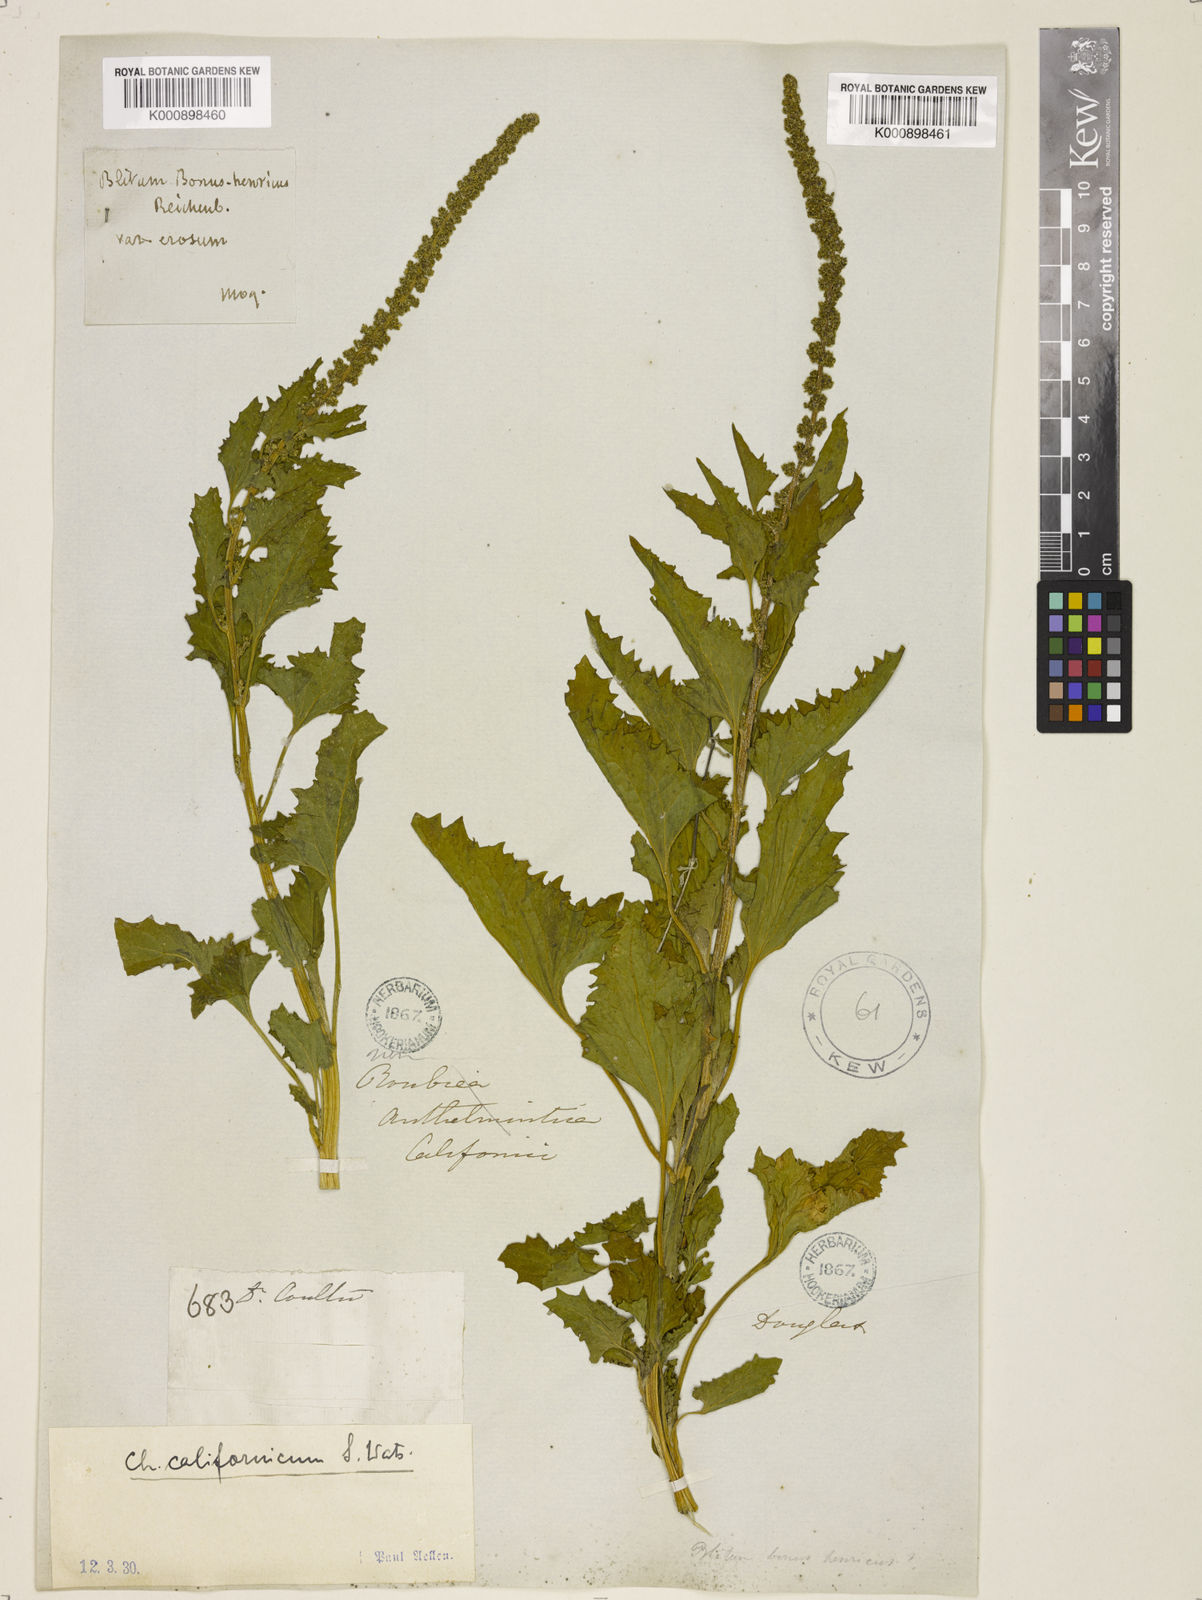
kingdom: Plantae
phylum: Tracheophyta
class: Magnoliopsida
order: Caryophyllales
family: Amaranthaceae
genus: Blitum
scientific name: Blitum californicum
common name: California goosefoot
